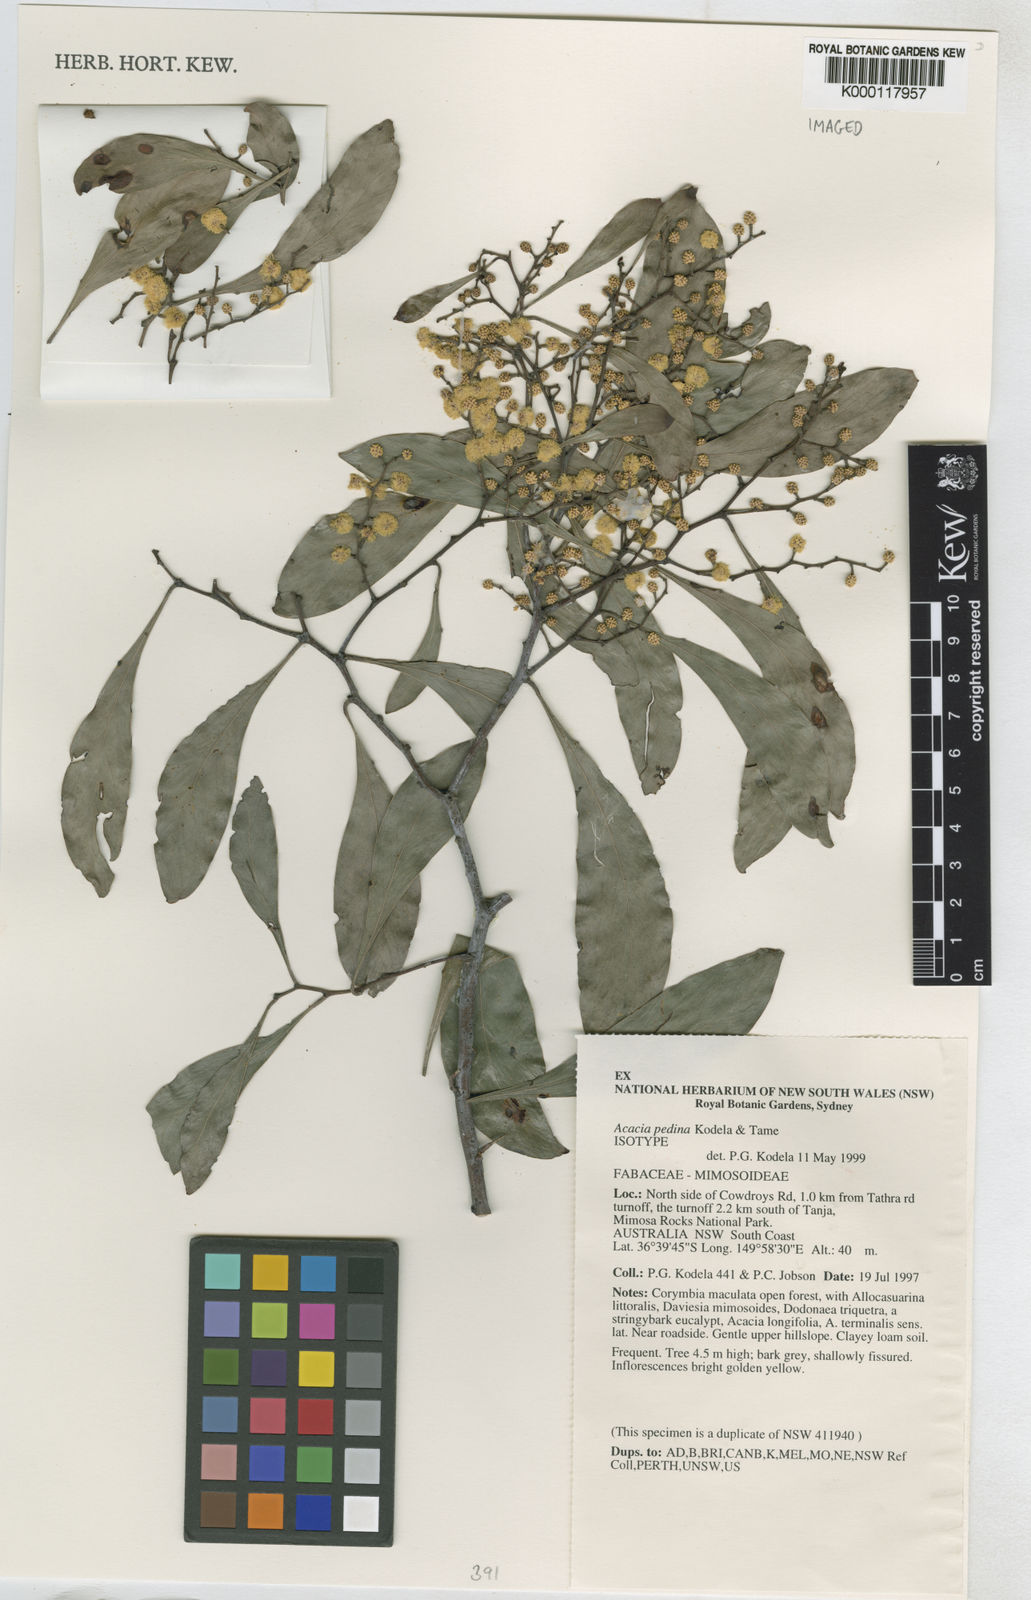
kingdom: Plantae
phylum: Tracheophyta
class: Magnoliopsida
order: Fabales
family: Fabaceae
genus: Acacia
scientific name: Acacia pedina
